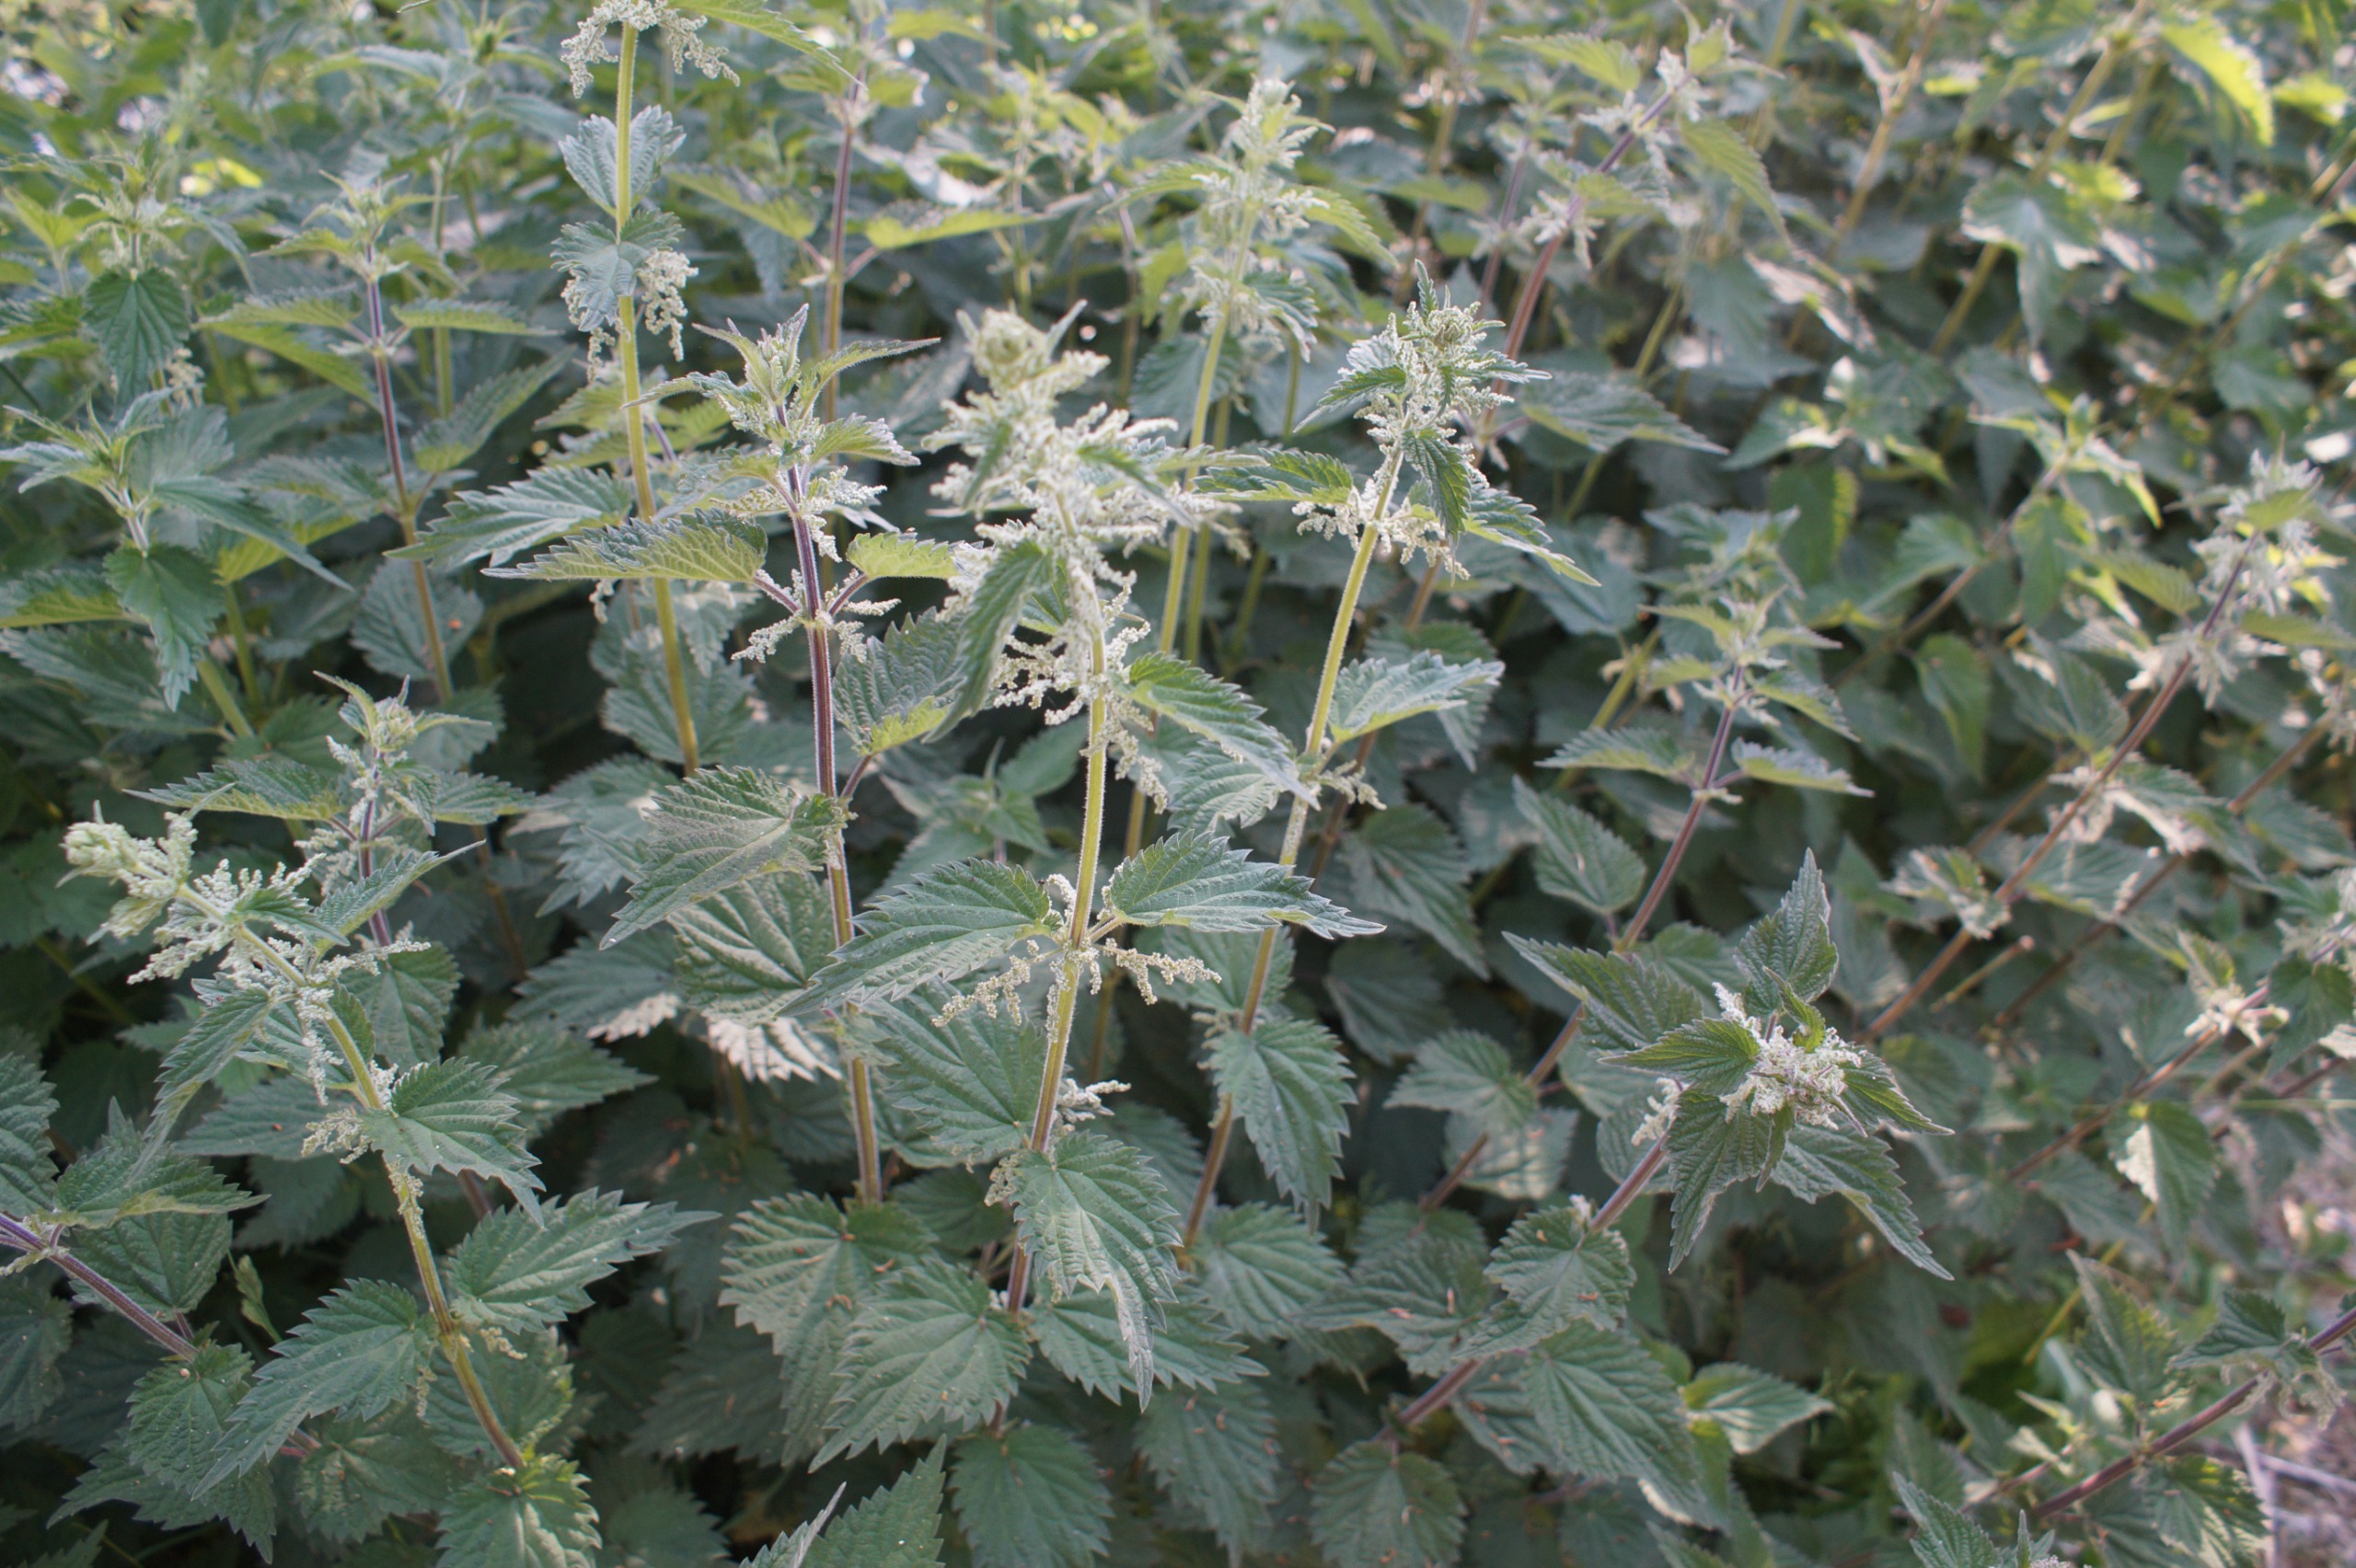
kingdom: Plantae
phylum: Tracheophyta
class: Magnoliopsida
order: Rosales
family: Urticaceae
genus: Urtica
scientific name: Urtica dioica
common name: Stor nælde
